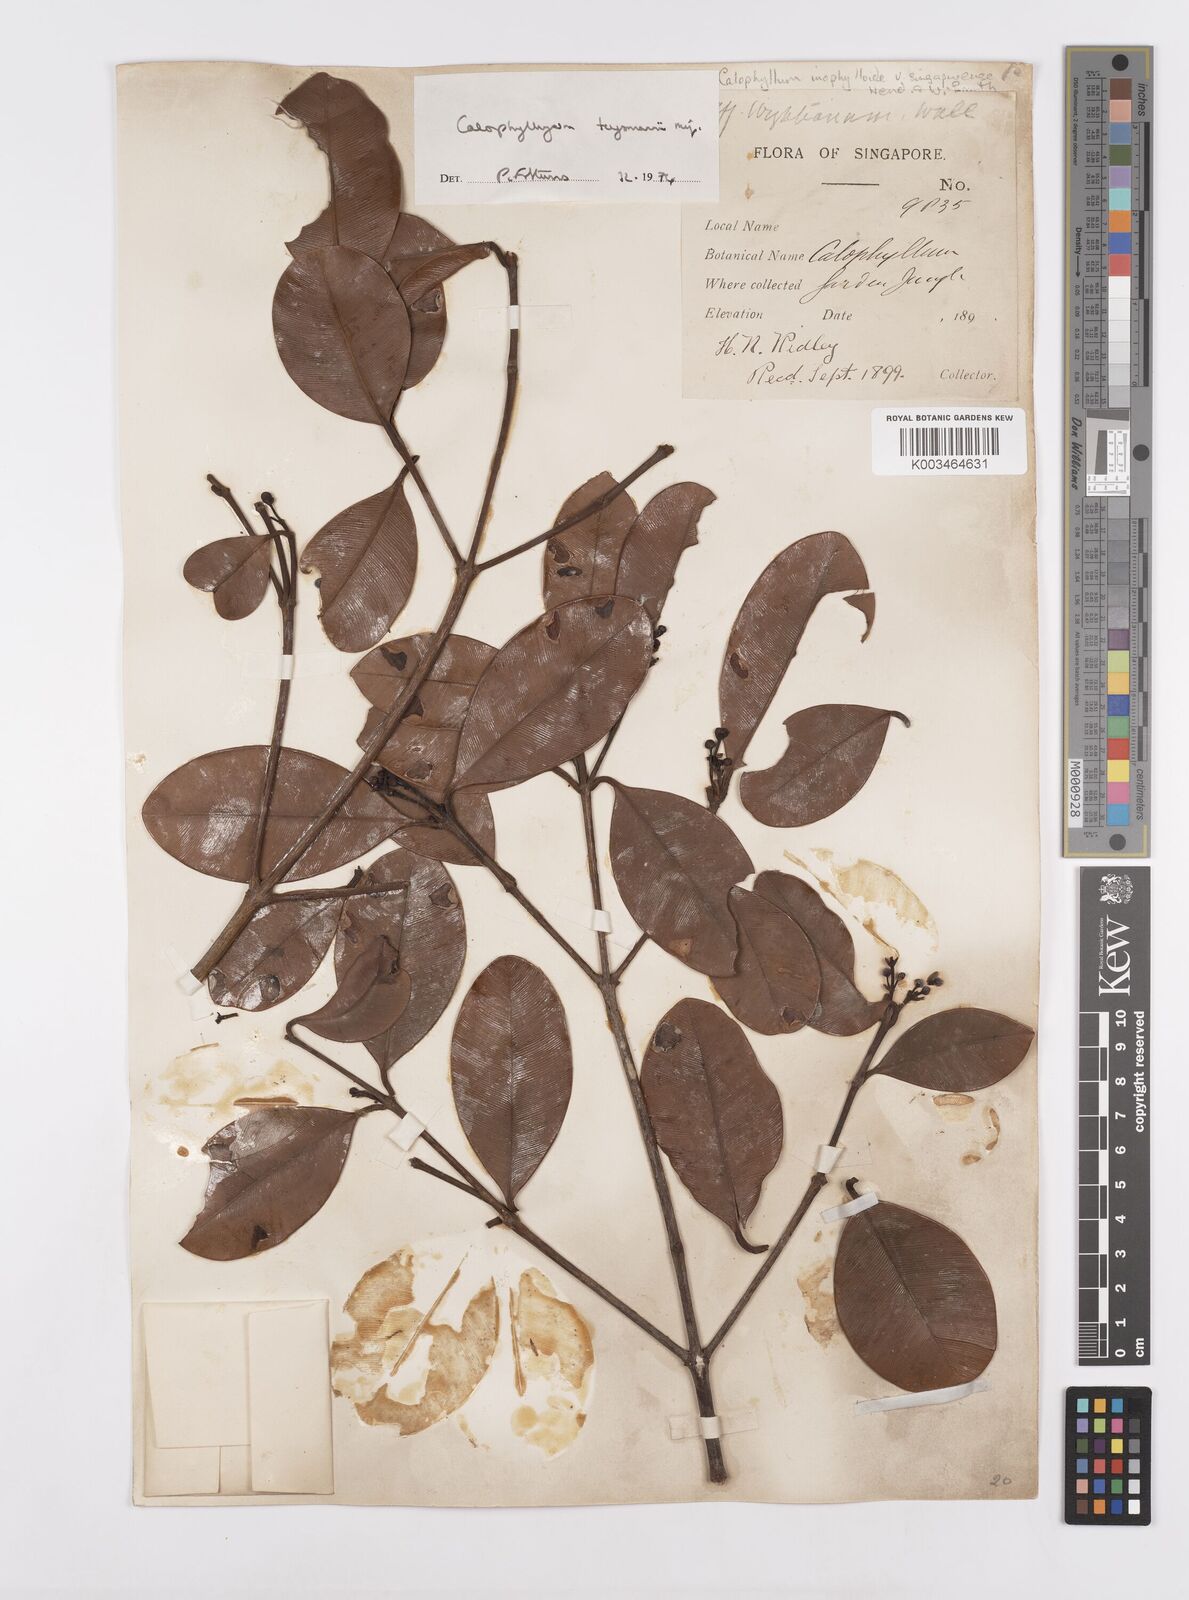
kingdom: Plantae
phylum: Tracheophyta
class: Magnoliopsida
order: Malpighiales
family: Calophyllaceae
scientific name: Calophyllaceae
